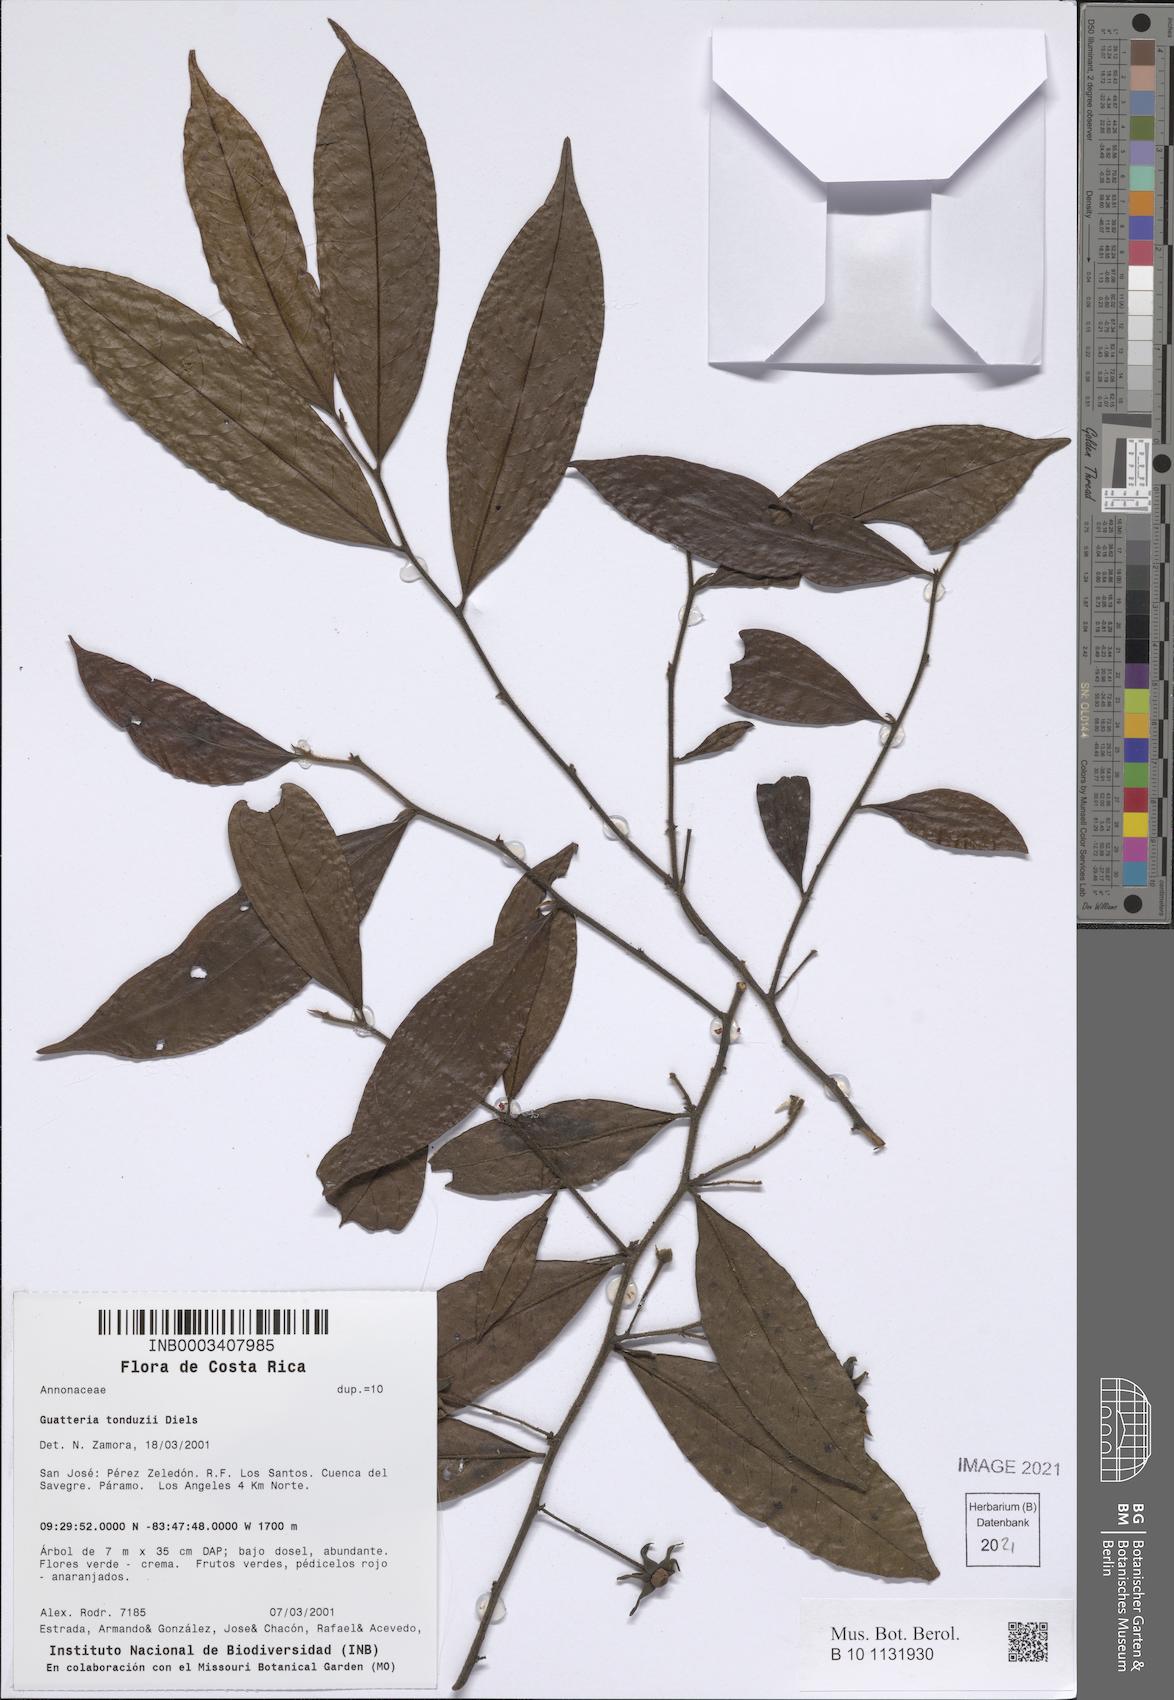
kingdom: Plantae
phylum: Tracheophyta
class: Magnoliopsida
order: Magnoliales
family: Annonaceae
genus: Guatteria
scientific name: Guatteria tonduzii
